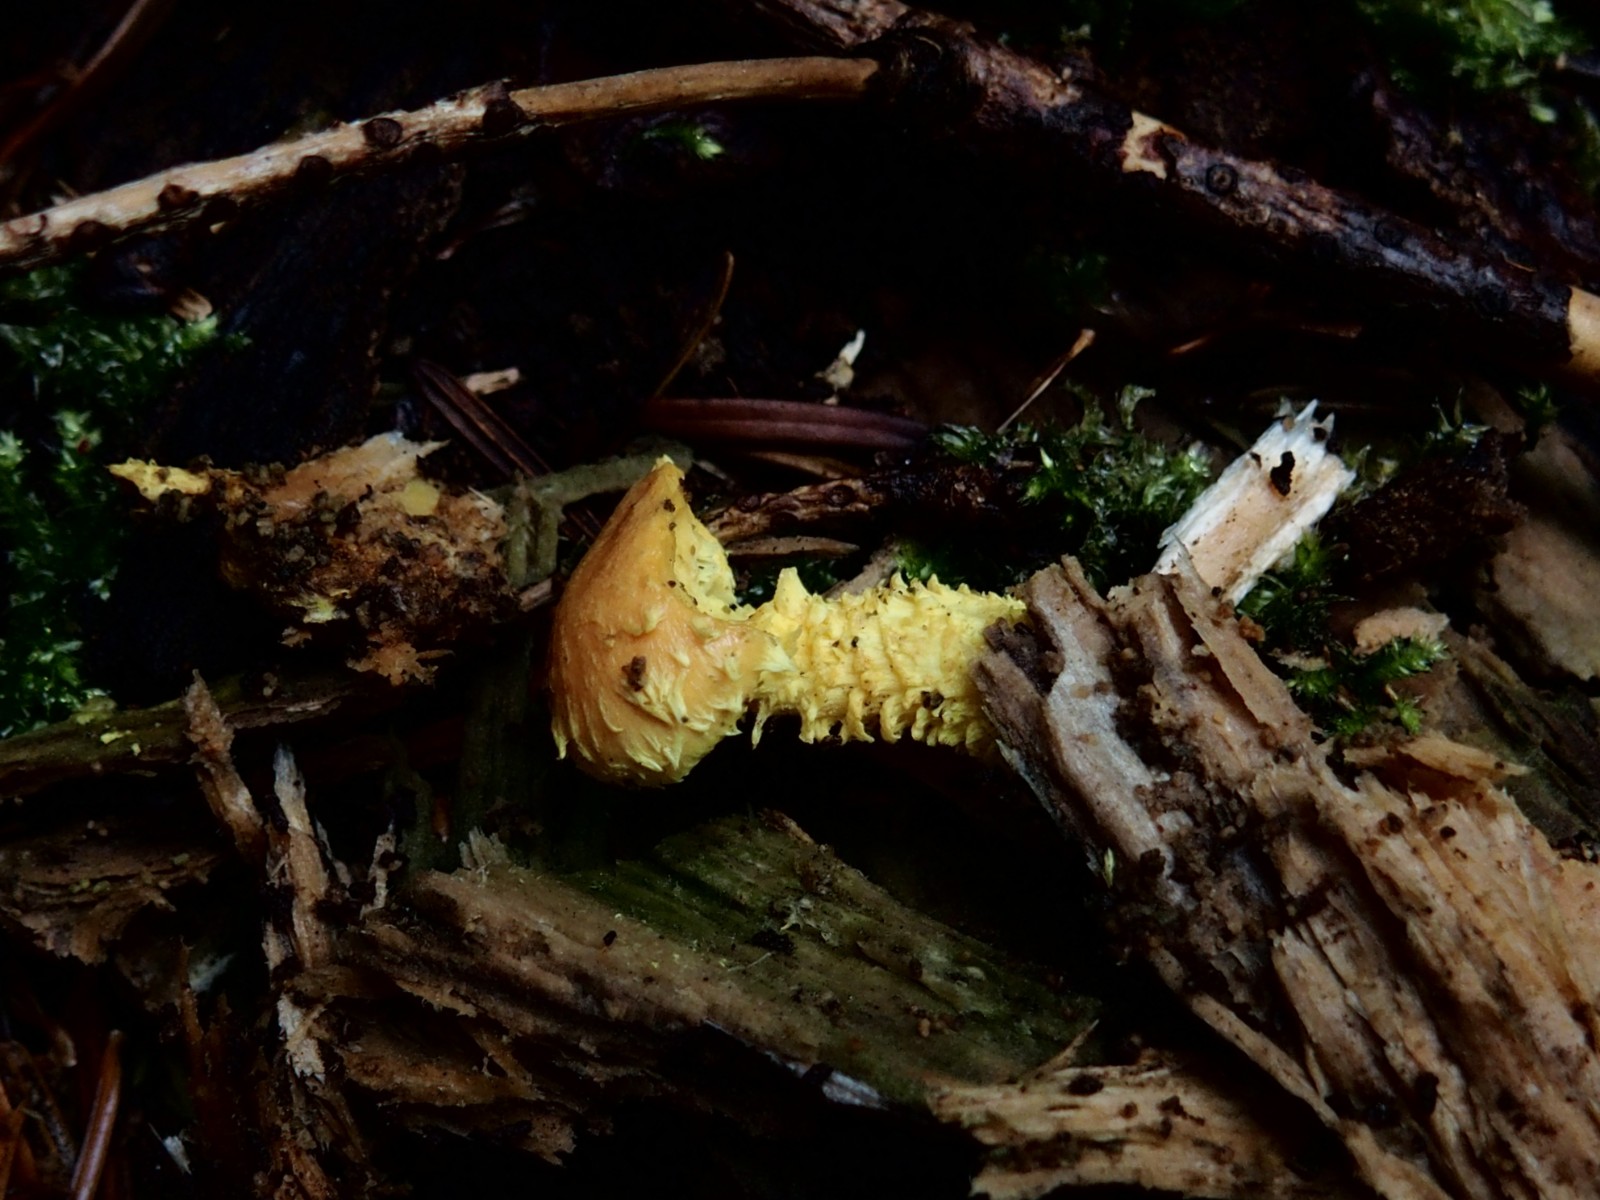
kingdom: Fungi
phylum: Basidiomycota
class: Agaricomycetes
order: Agaricales
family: Strophariaceae
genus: Pholiota
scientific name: Pholiota flammans
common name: flamme-skælhat
